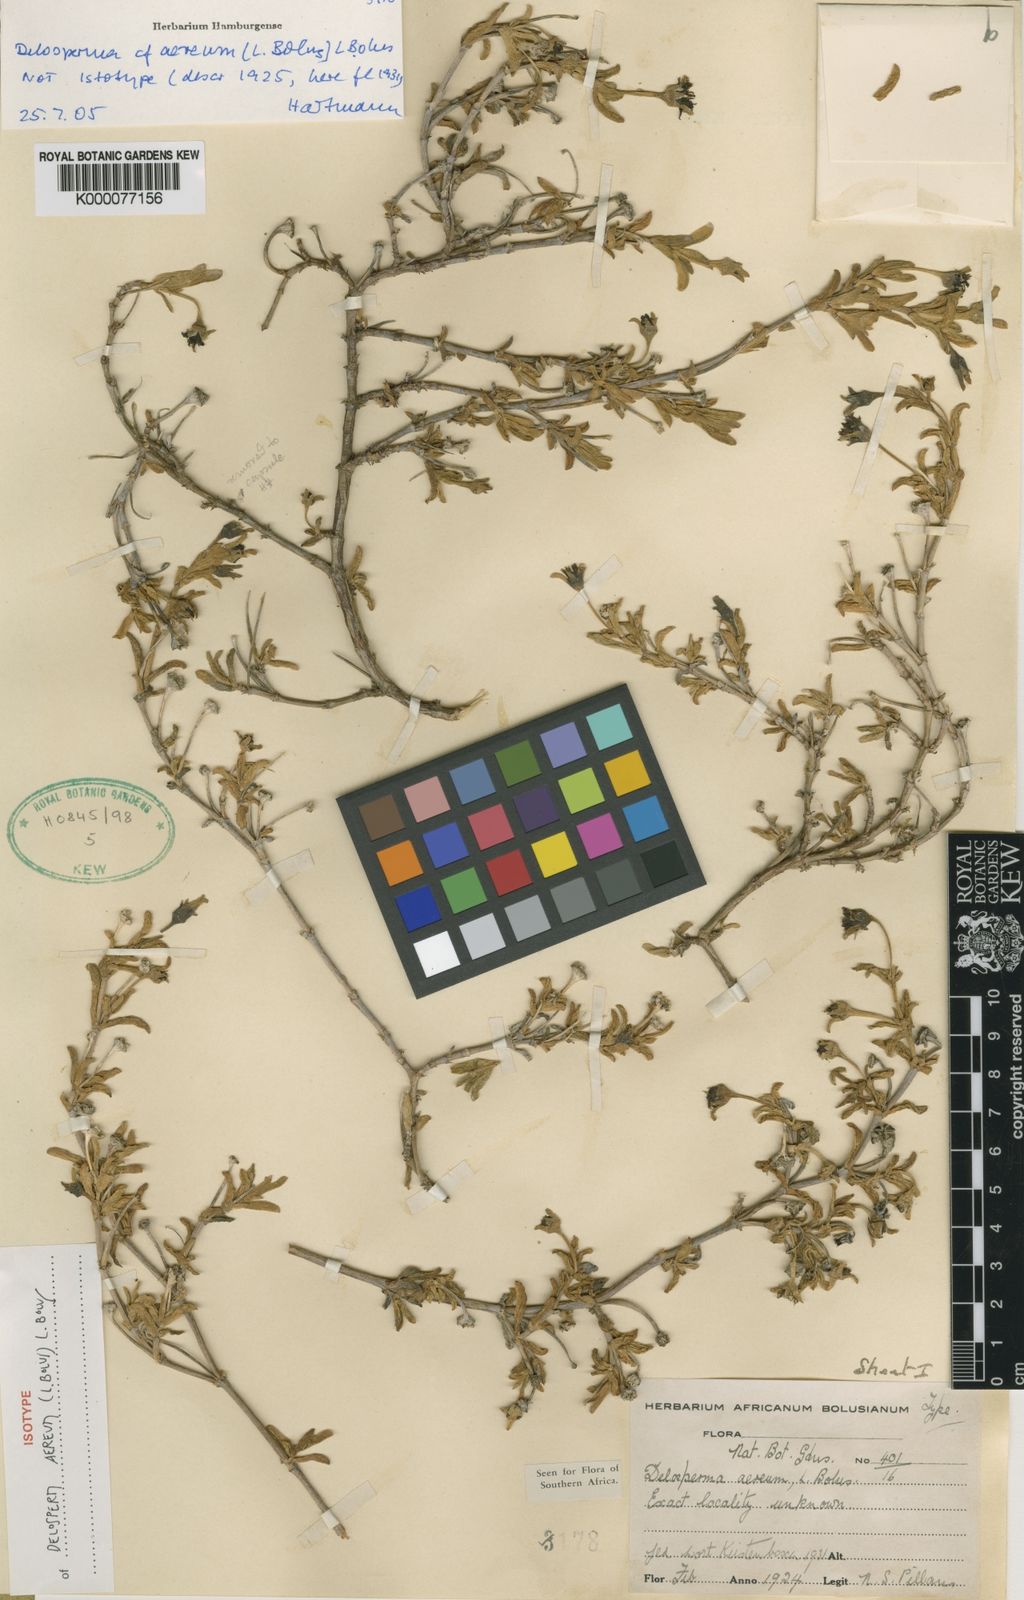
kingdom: Plantae
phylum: Tracheophyta
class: Magnoliopsida
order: Caryophyllales
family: Aizoaceae
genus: Delosperma
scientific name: Delosperma aereum
